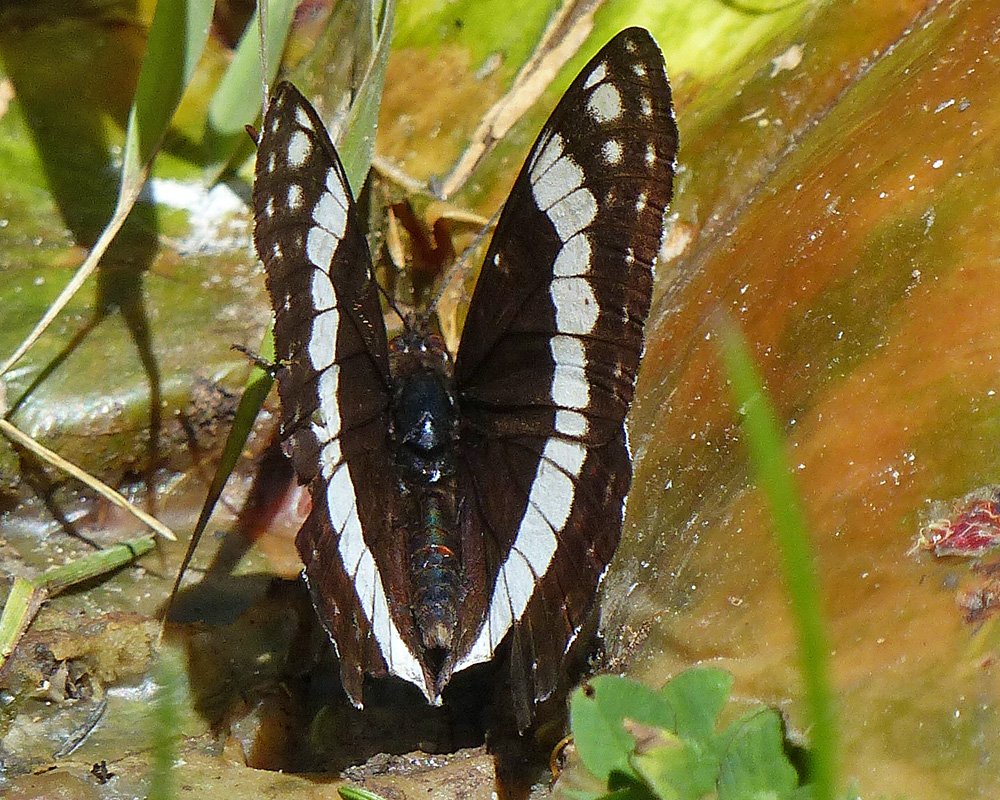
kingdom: Animalia
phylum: Arthropoda
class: Insecta
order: Lepidoptera
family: Nymphalidae
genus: Limenitis
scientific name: Limenitis weidemeyerii
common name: Weidemeyer's Admiral
